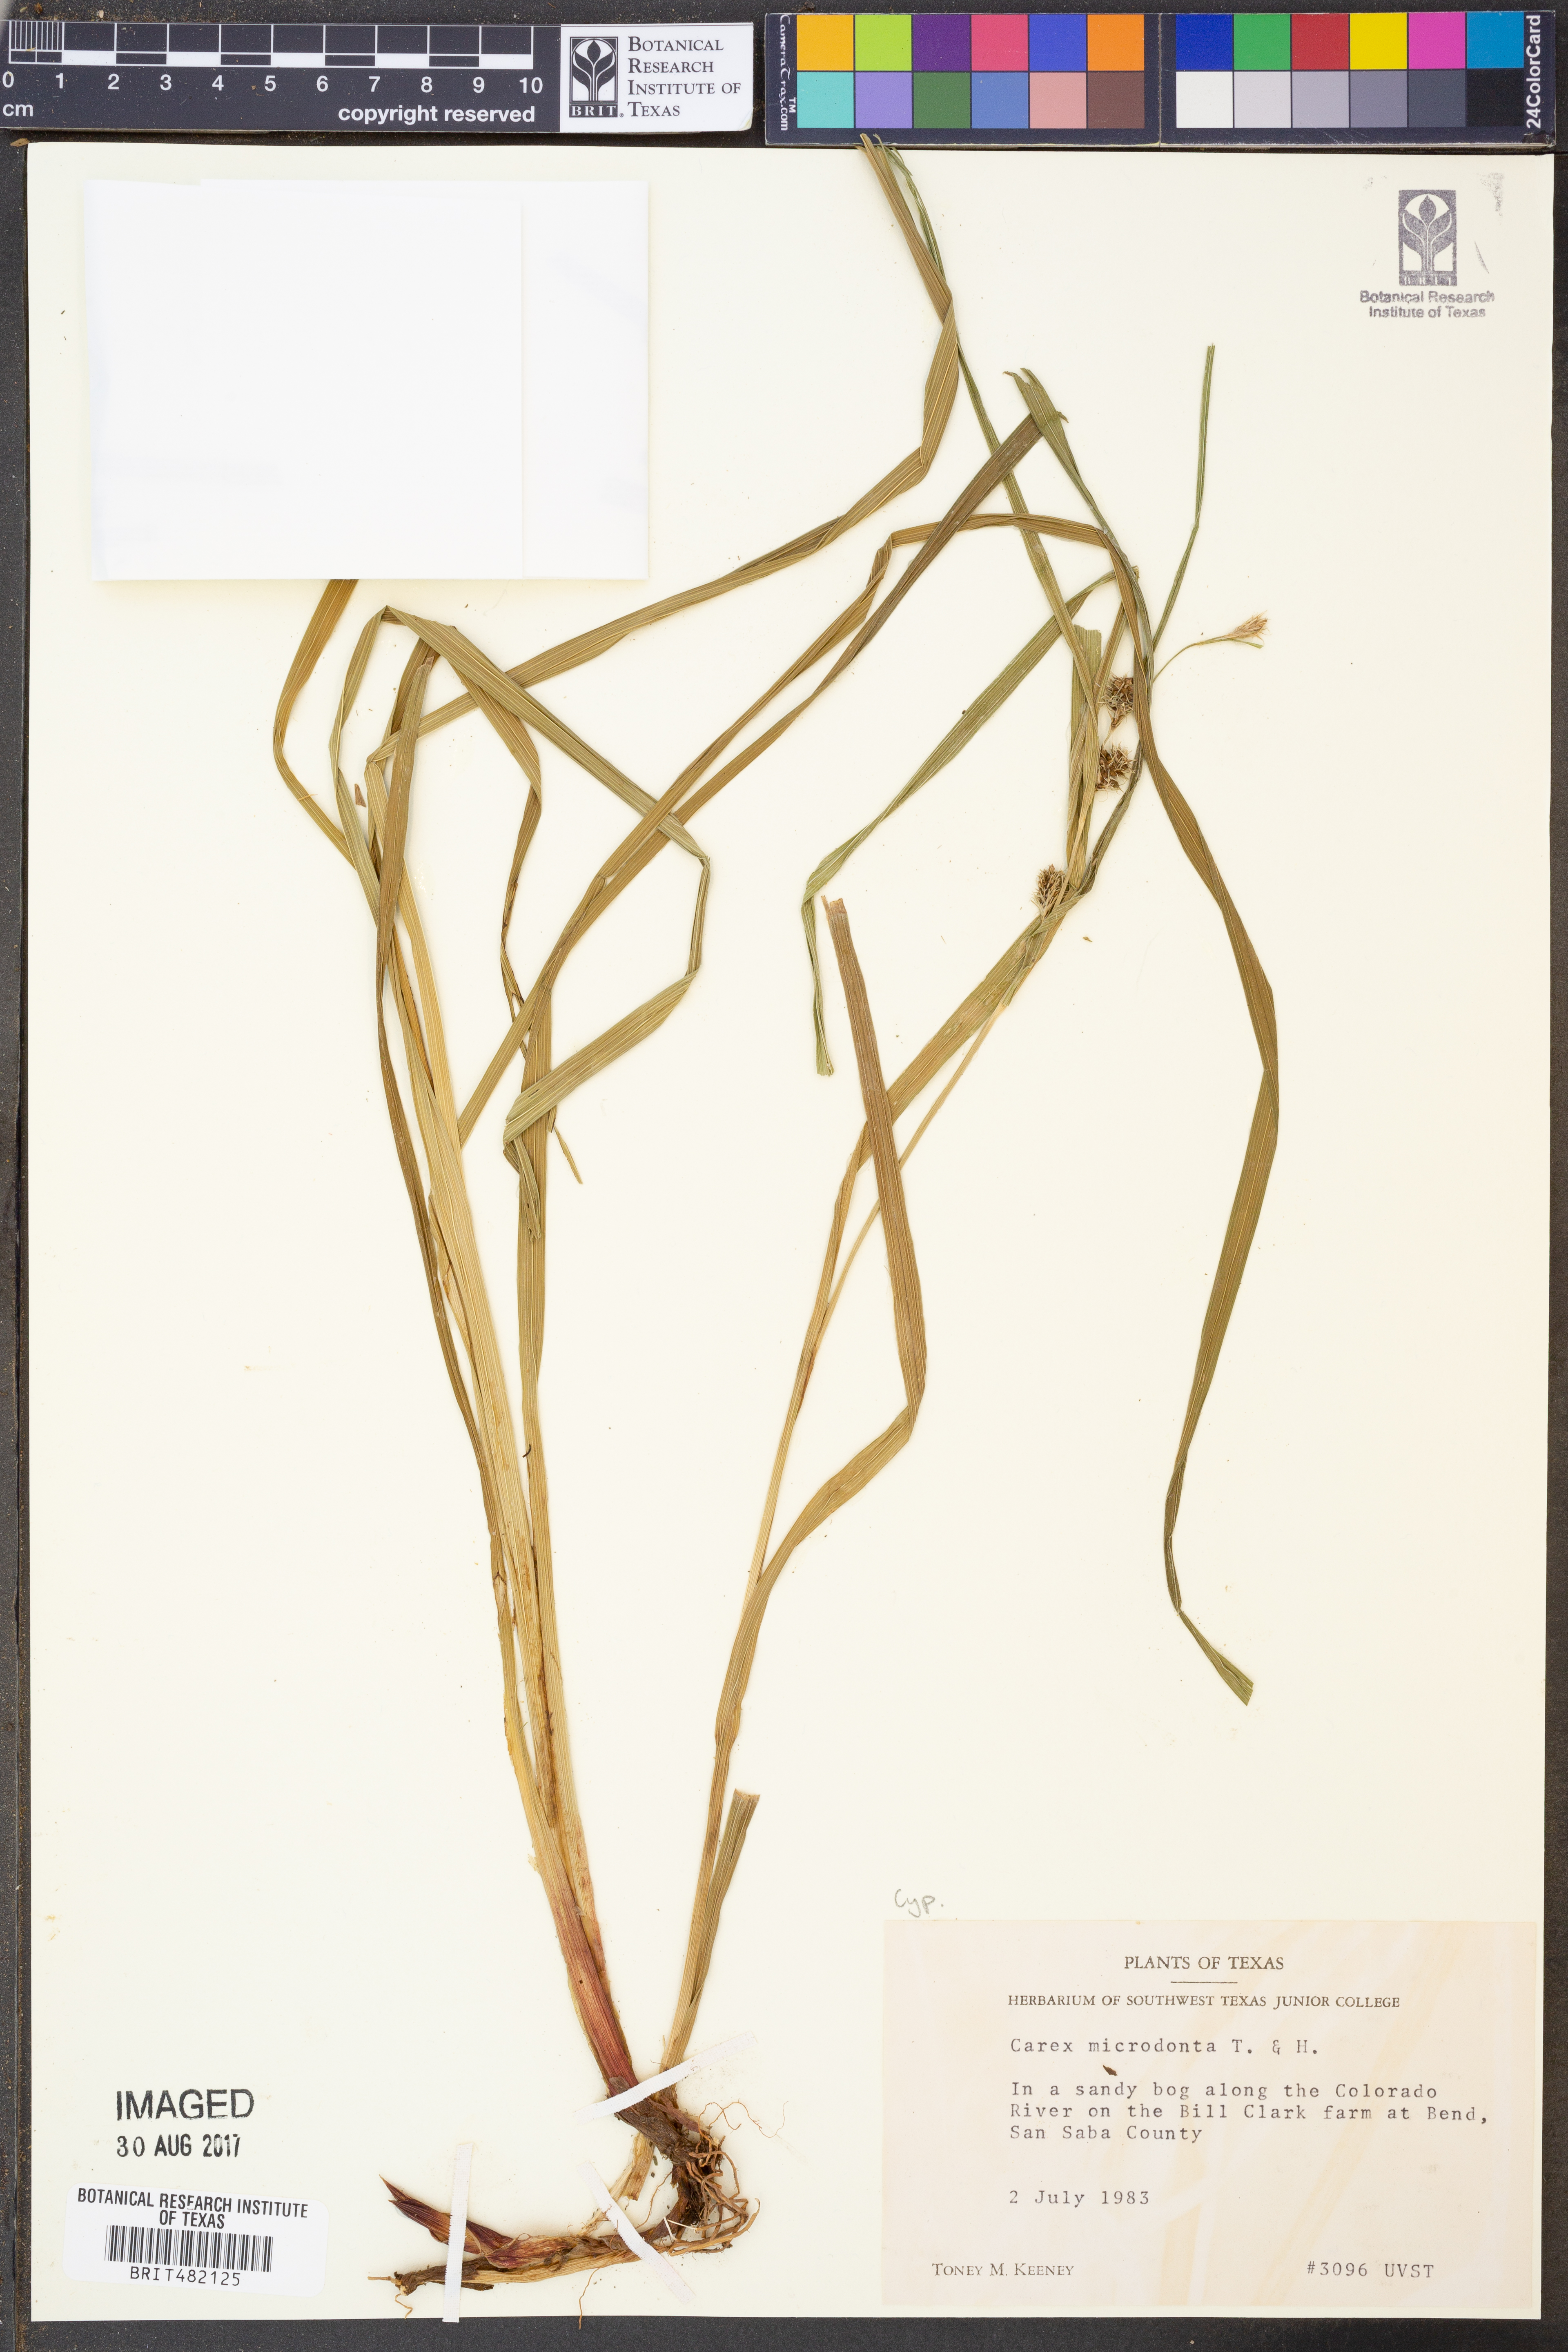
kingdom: Plantae
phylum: Tracheophyta
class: Liliopsida
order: Poales
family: Cyperaceae
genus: Carex
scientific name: Carex microdonta
